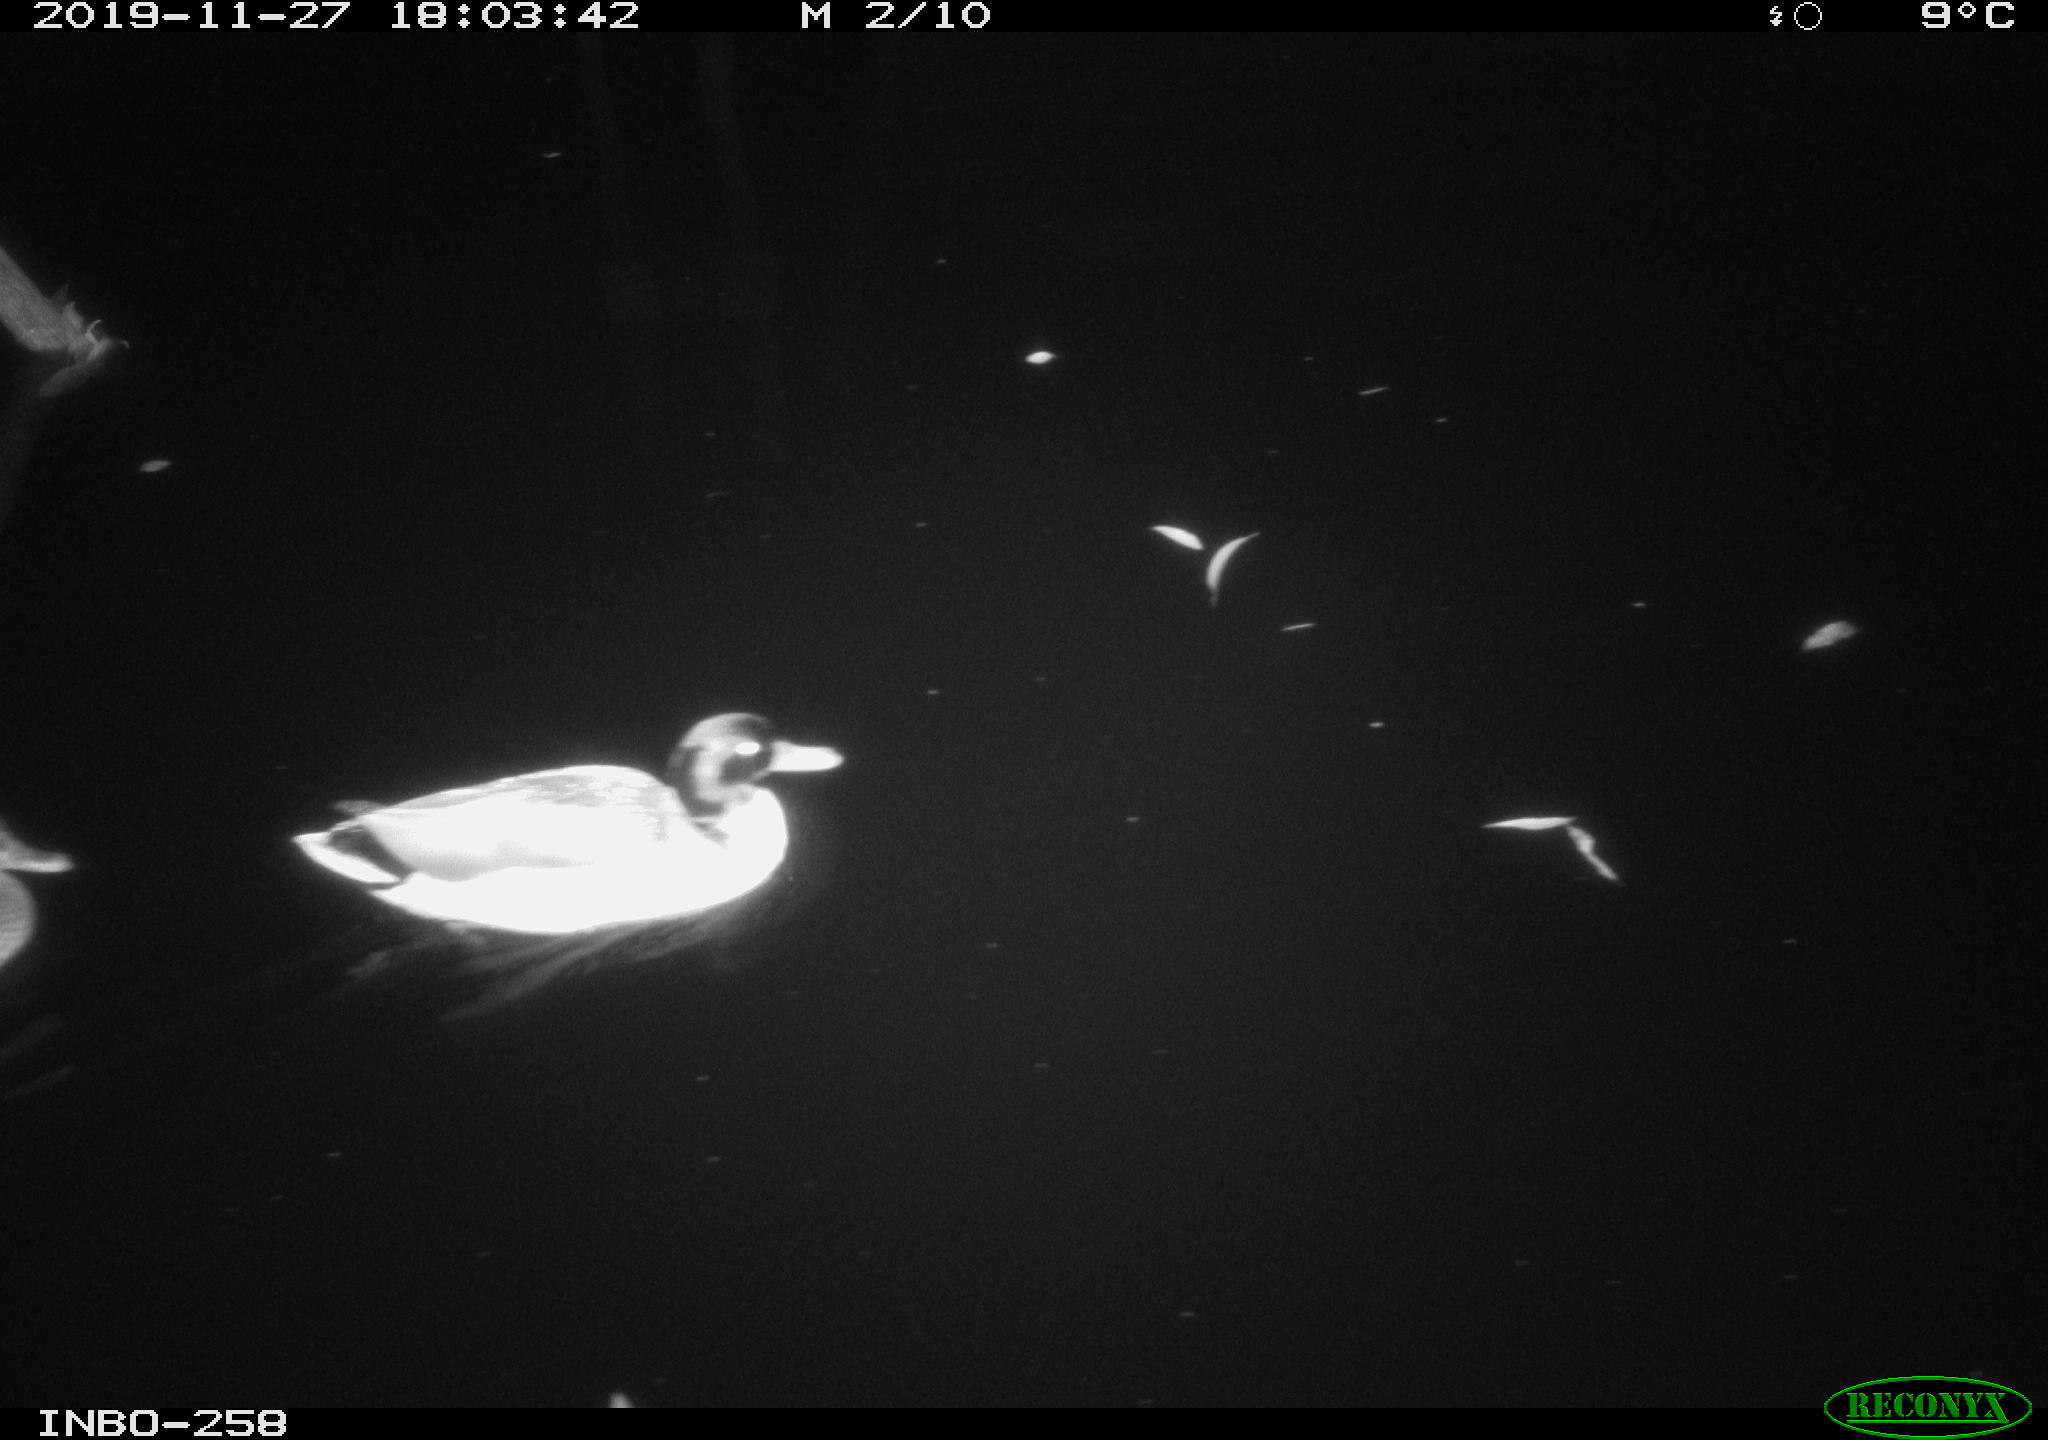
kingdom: Animalia
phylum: Chordata
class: Aves
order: Anseriformes
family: Anatidae
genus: Anas
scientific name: Anas platyrhynchos
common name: Mallard
